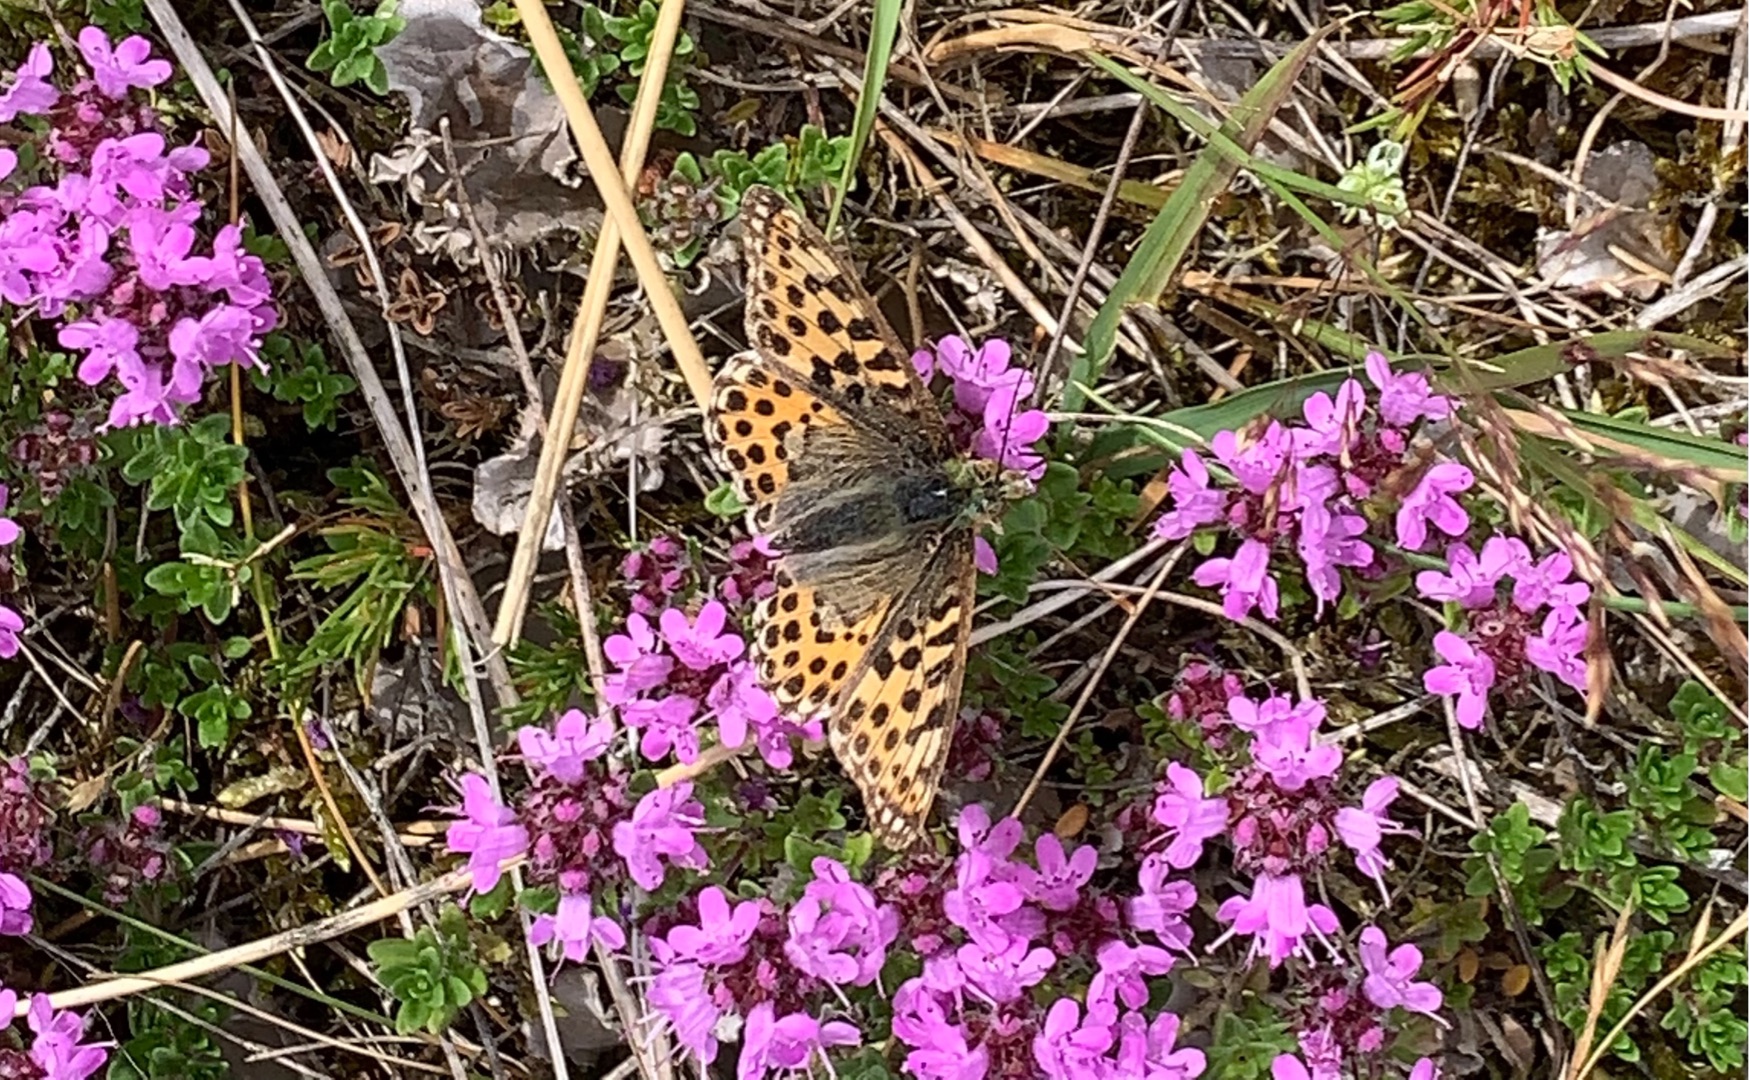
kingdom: Animalia
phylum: Arthropoda
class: Insecta
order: Lepidoptera
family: Nymphalidae
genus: Issoria
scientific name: Issoria lathonia
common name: Storplettet perlemorsommerfugl
